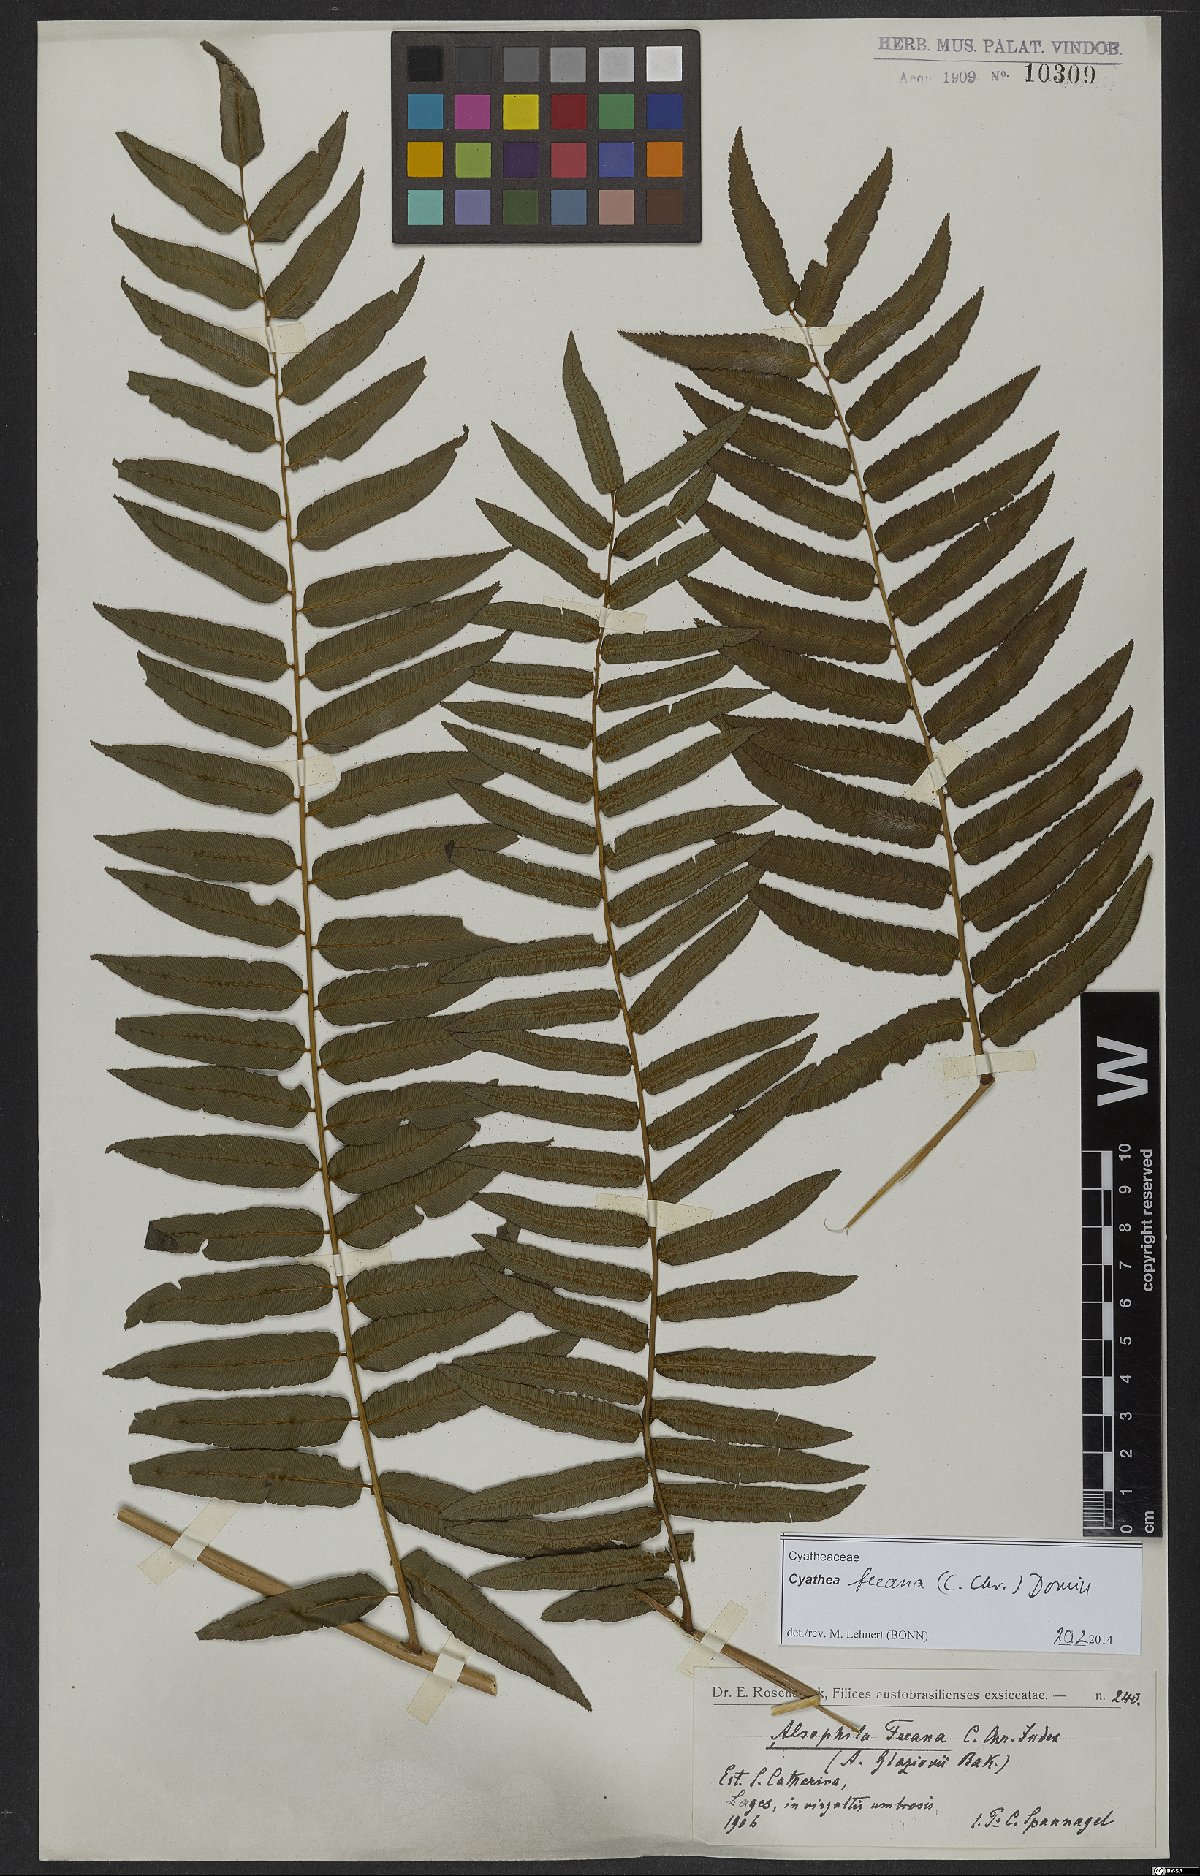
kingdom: Plantae
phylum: Tracheophyta
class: Polypodiopsida
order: Cyatheales
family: Cyatheaceae
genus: Cyathea
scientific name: Cyathea feeana
